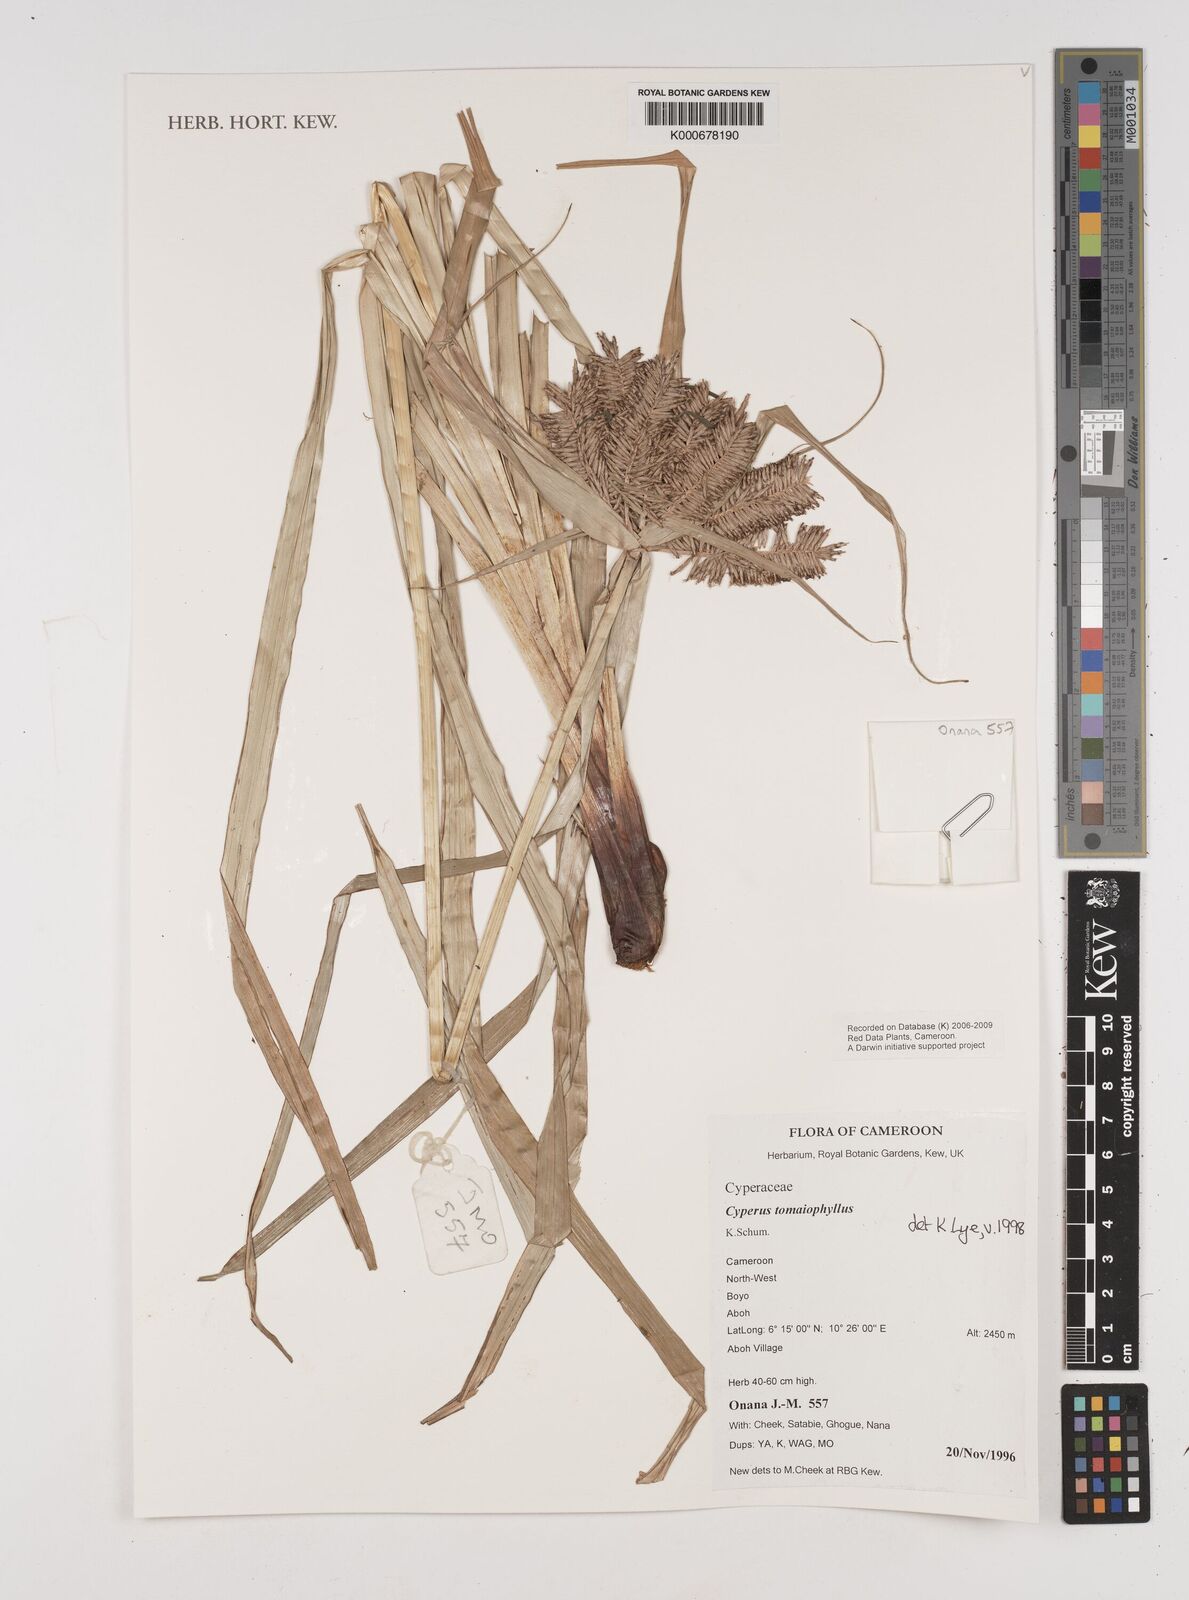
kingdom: Plantae
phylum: Tracheophyta
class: Liliopsida
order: Poales
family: Cyperaceae
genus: Cyperus
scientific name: Cyperus tomaiophyllus
